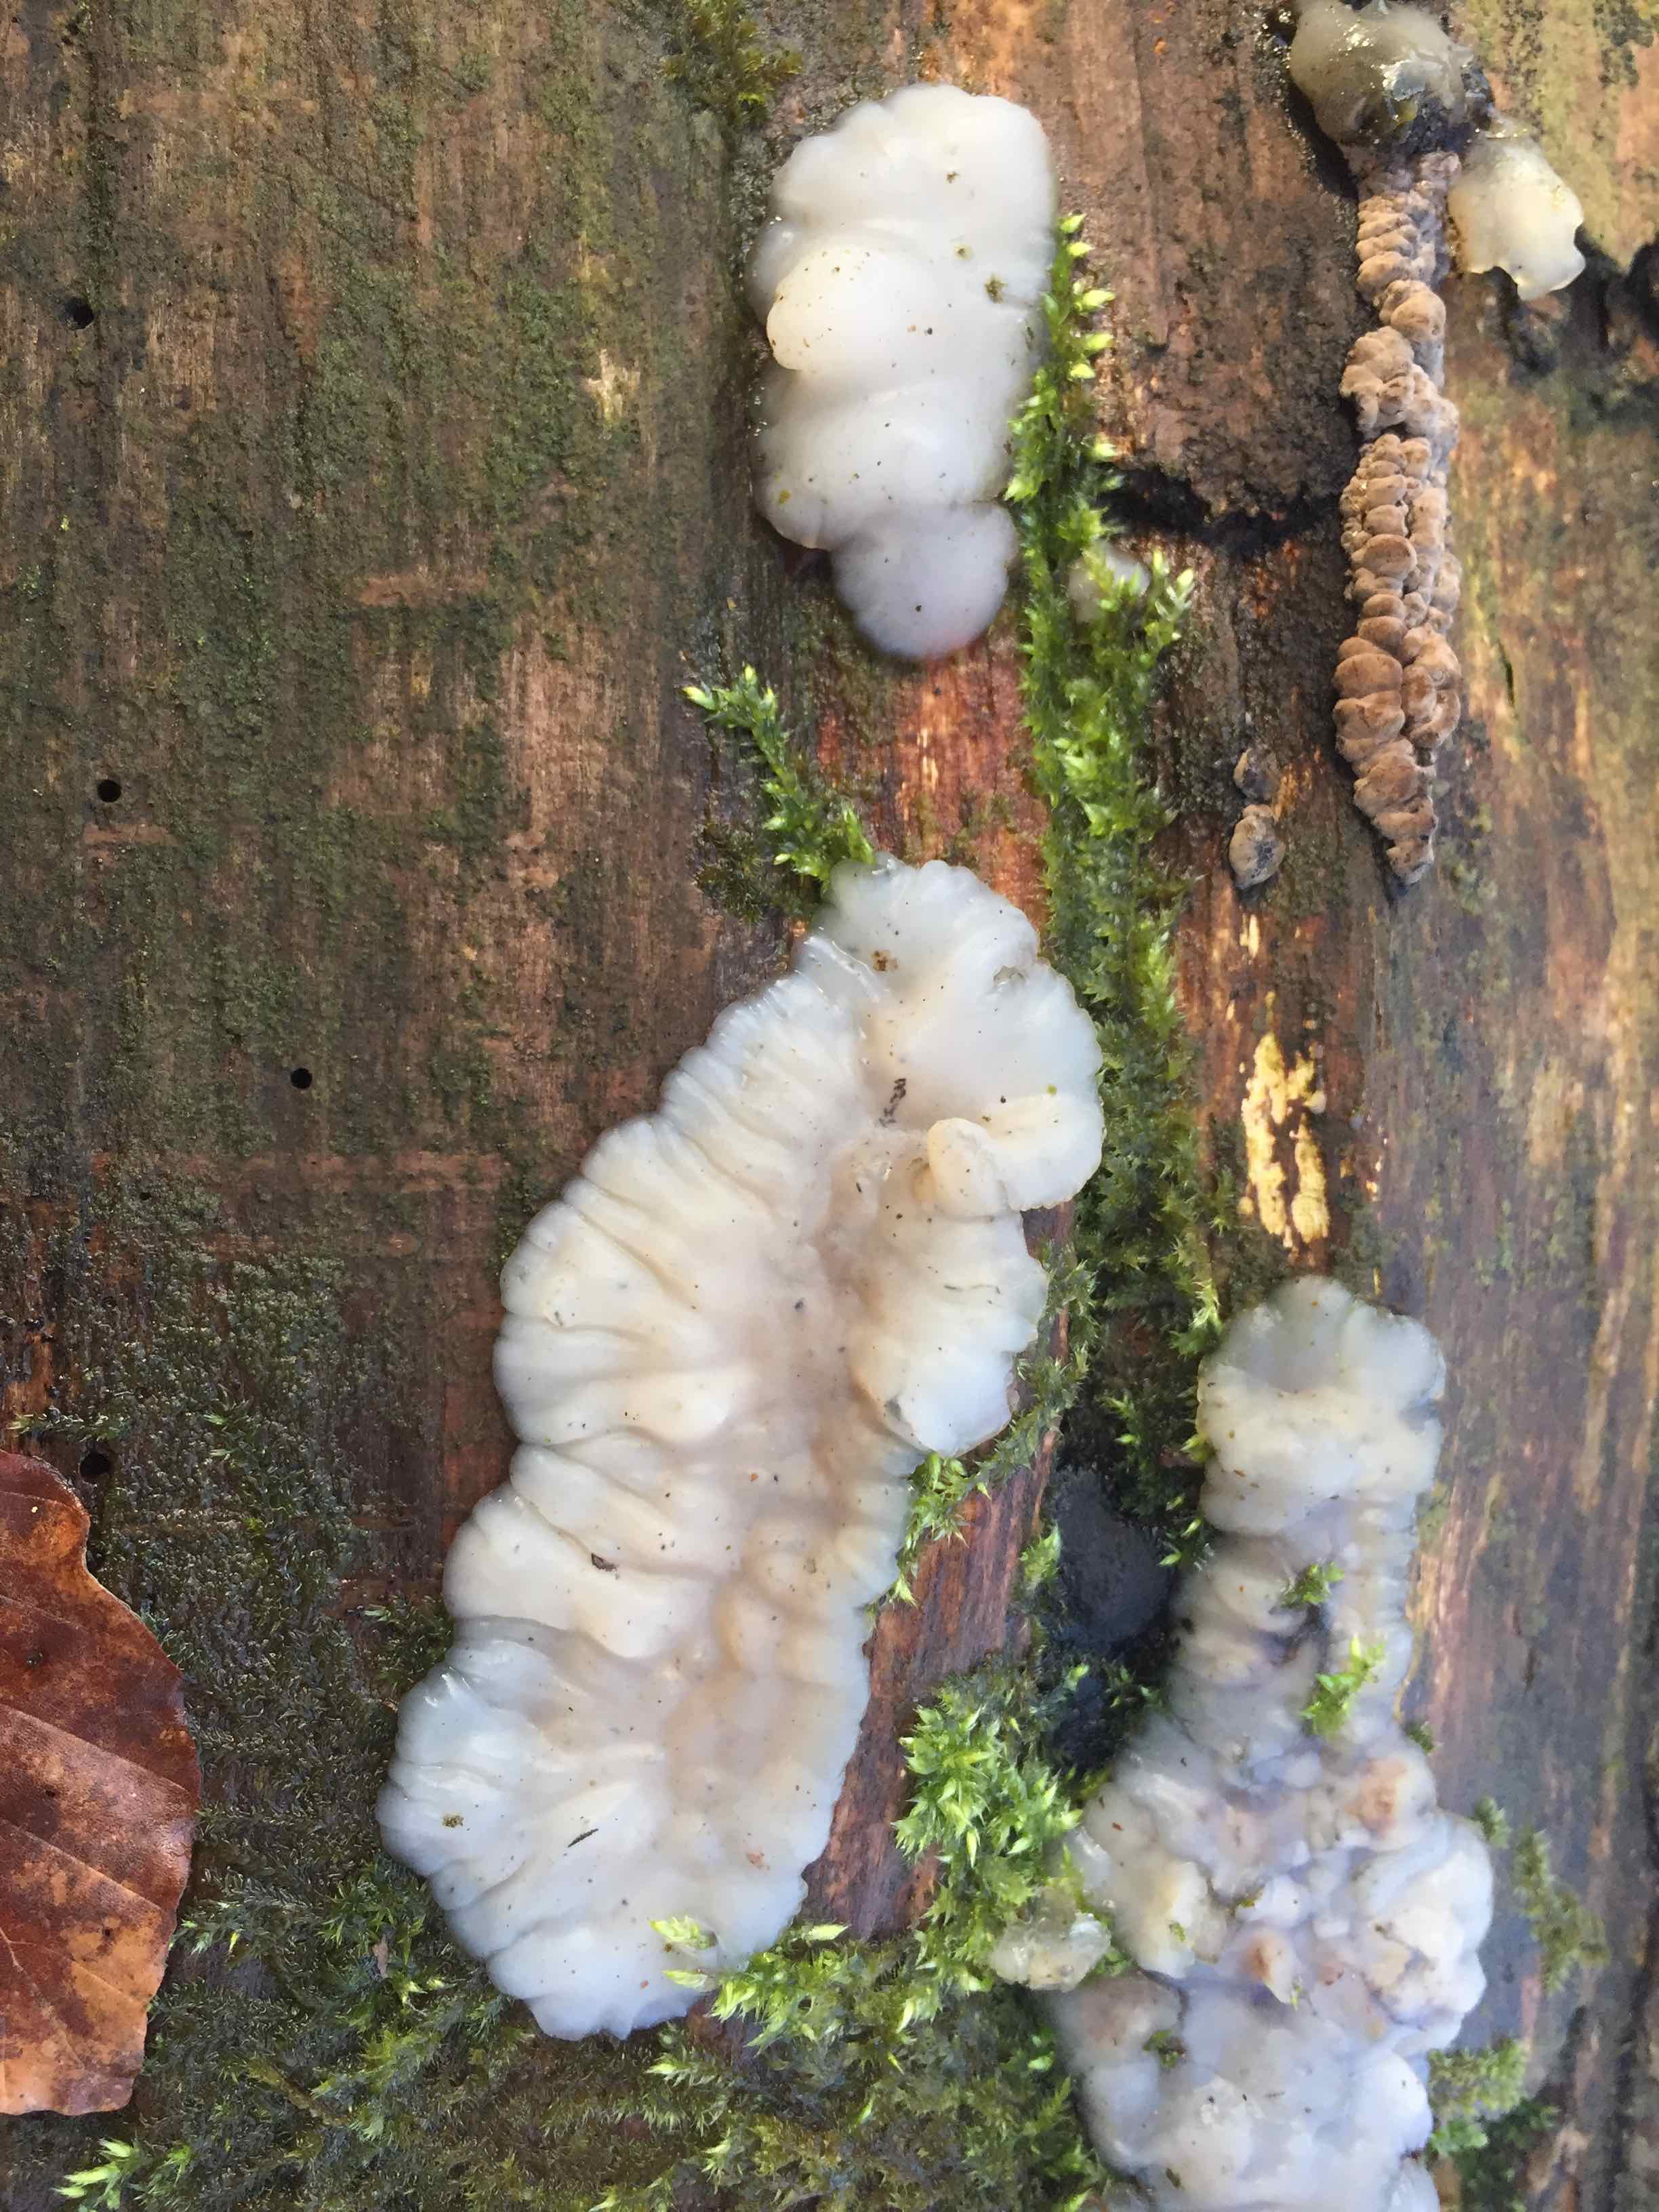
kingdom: Fungi
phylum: Basidiomycota
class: Agaricomycetes
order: Auriculariales
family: Auriculariaceae
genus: Exidia
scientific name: Exidia thuretiana
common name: hvidlig bævretop
